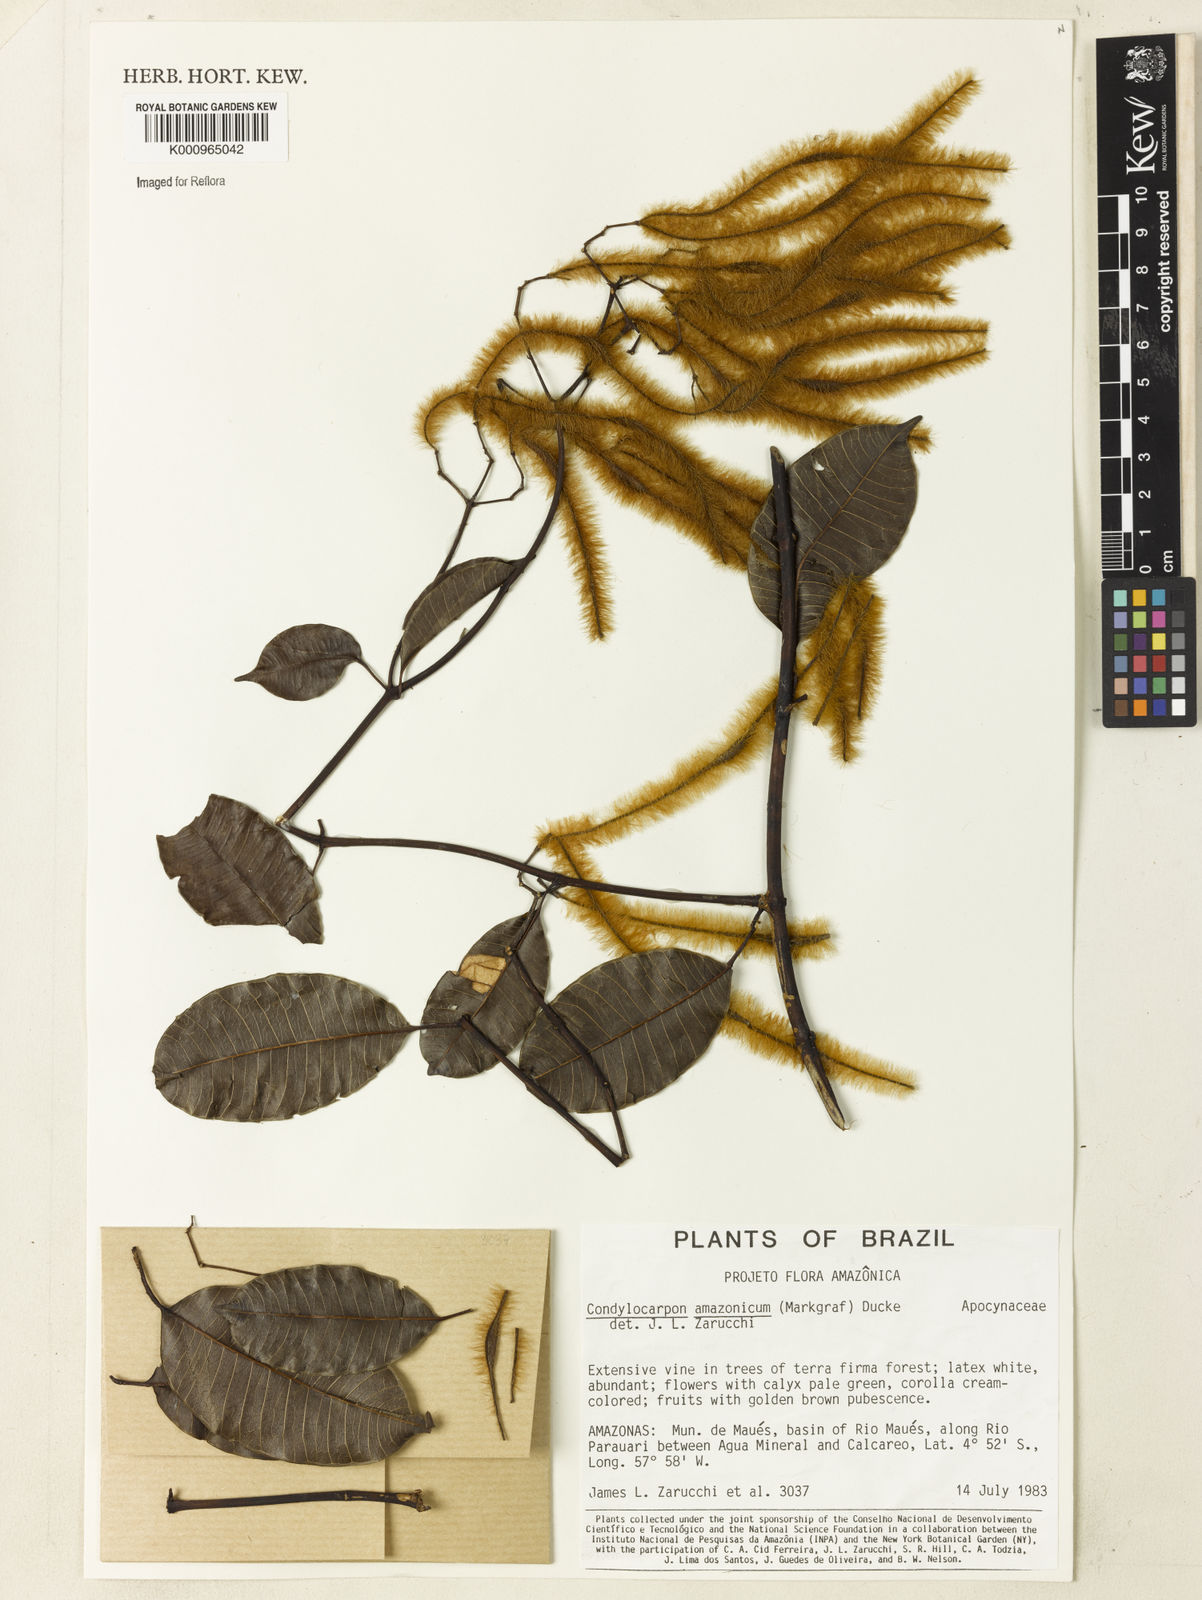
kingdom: Plantae
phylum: Tracheophyta
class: Magnoliopsida
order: Gentianales
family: Apocynaceae
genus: Condylocarpon
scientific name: Condylocarpon amazonicum
